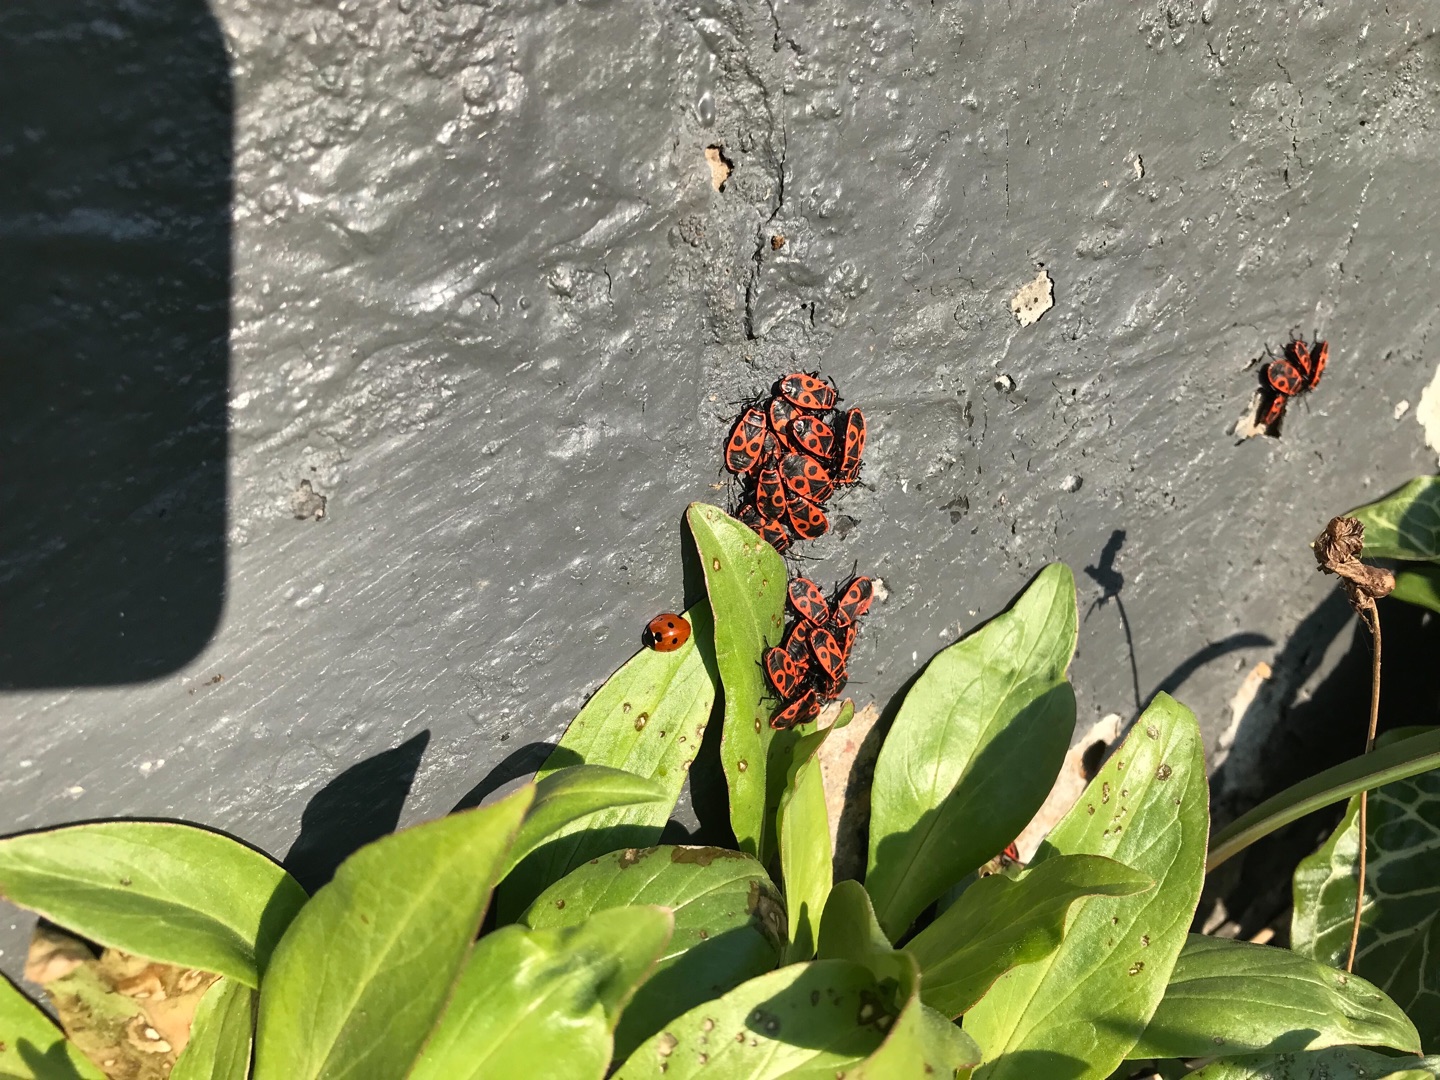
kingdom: Animalia
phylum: Arthropoda
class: Insecta
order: Hemiptera
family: Pyrrhocoridae
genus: Pyrrhocoris
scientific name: Pyrrhocoris apterus
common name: Ildtæge
